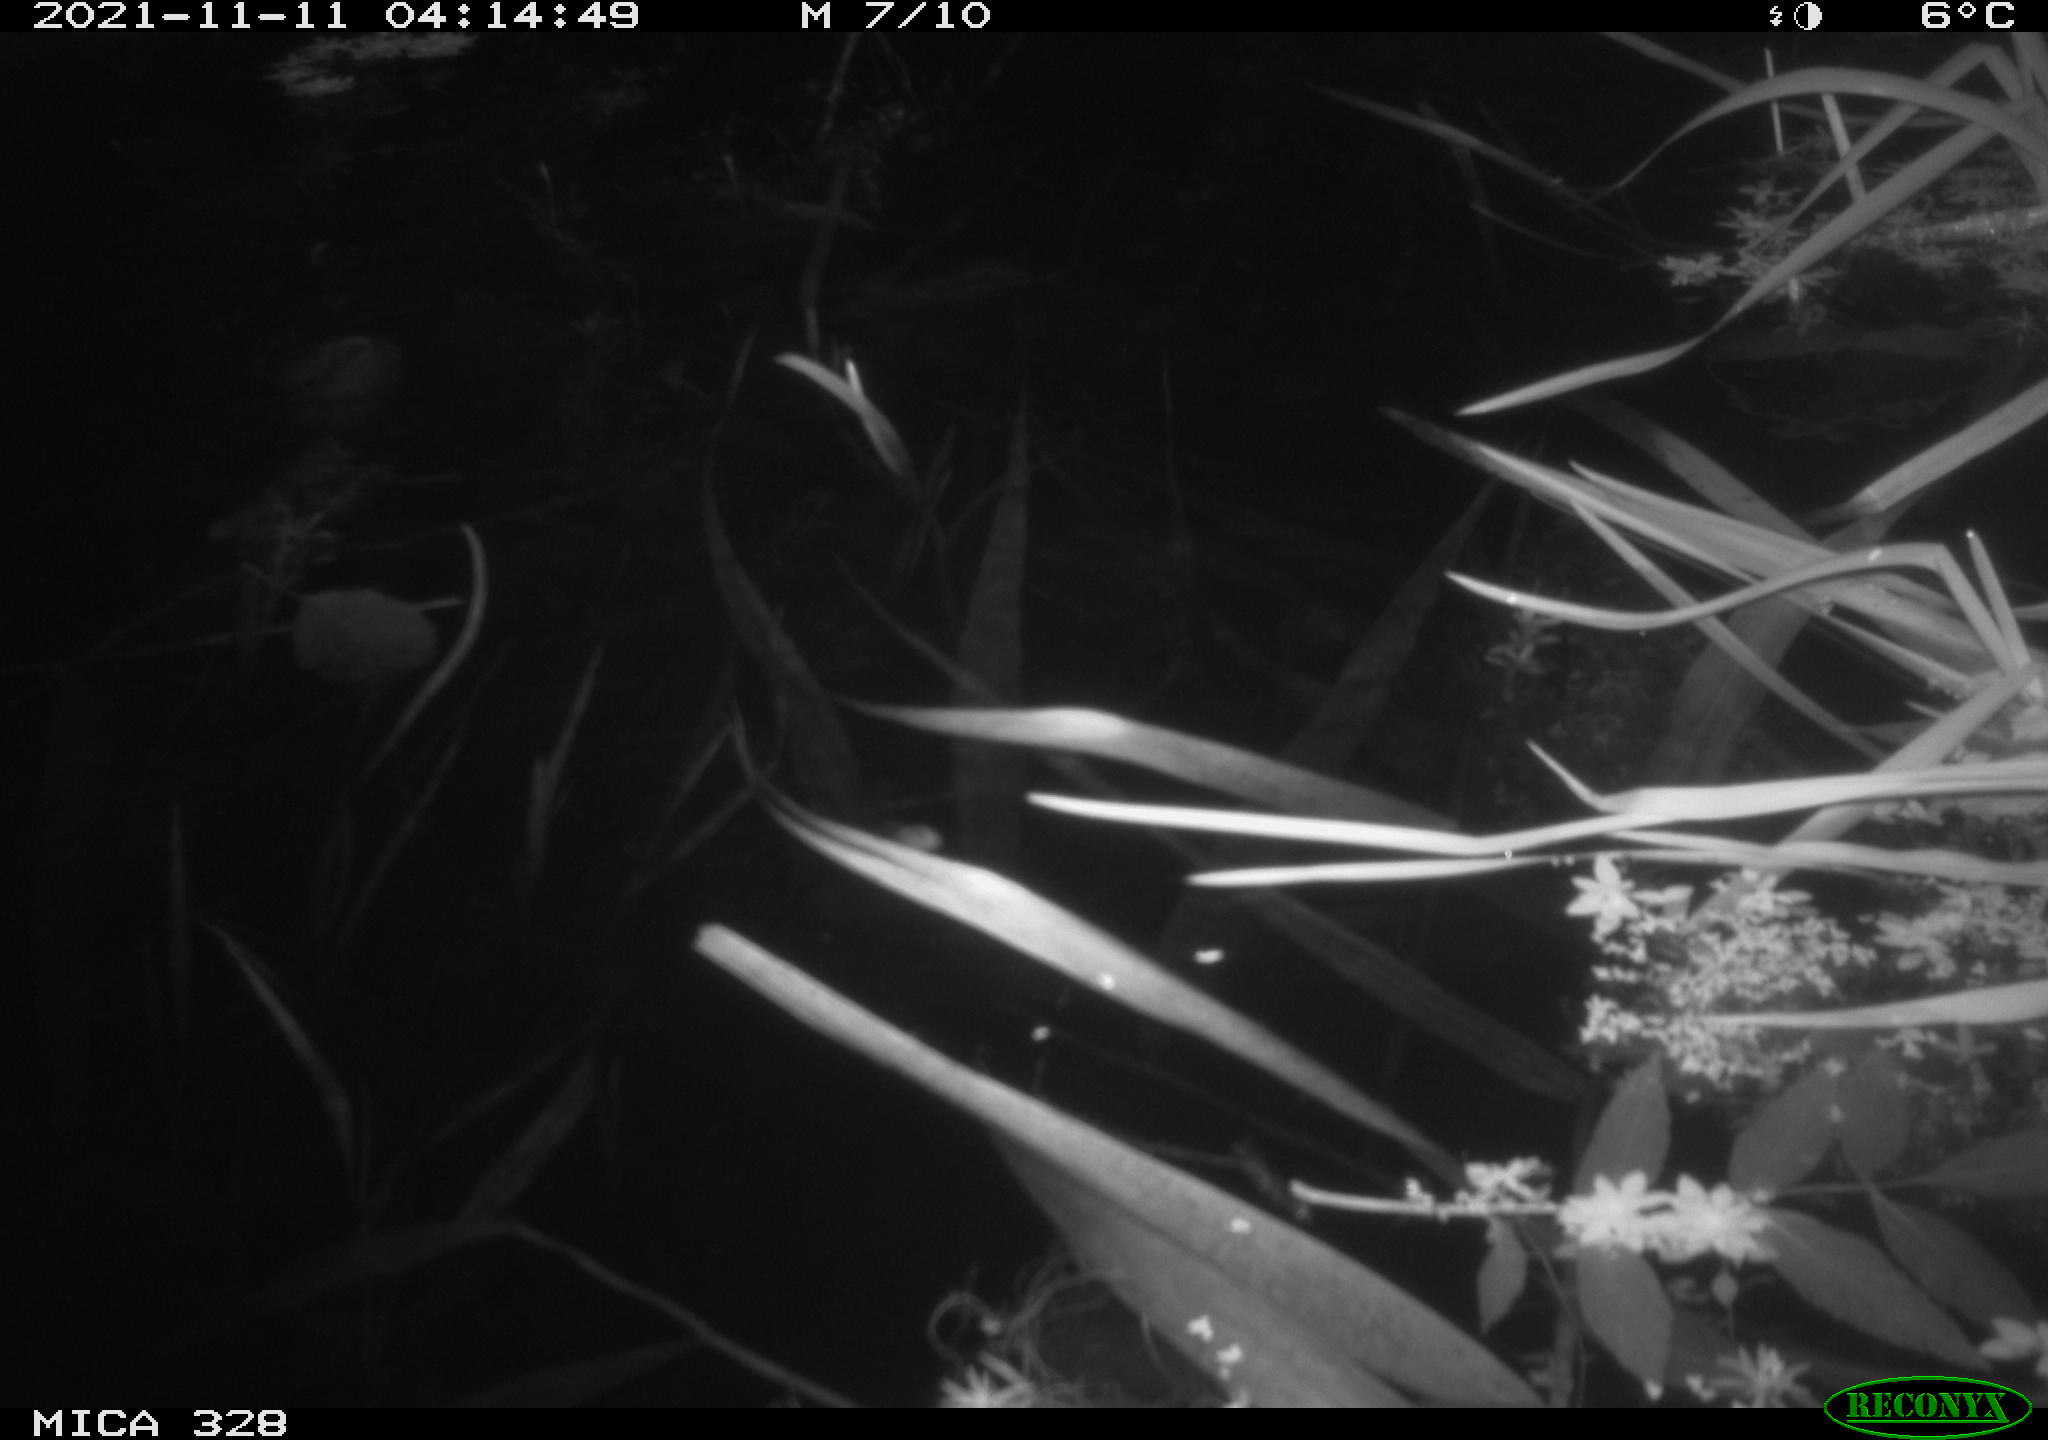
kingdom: Animalia
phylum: Chordata
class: Mammalia
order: Rodentia
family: Cricetidae
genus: Ondatra
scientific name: Ondatra zibethicus
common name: Muskrat
